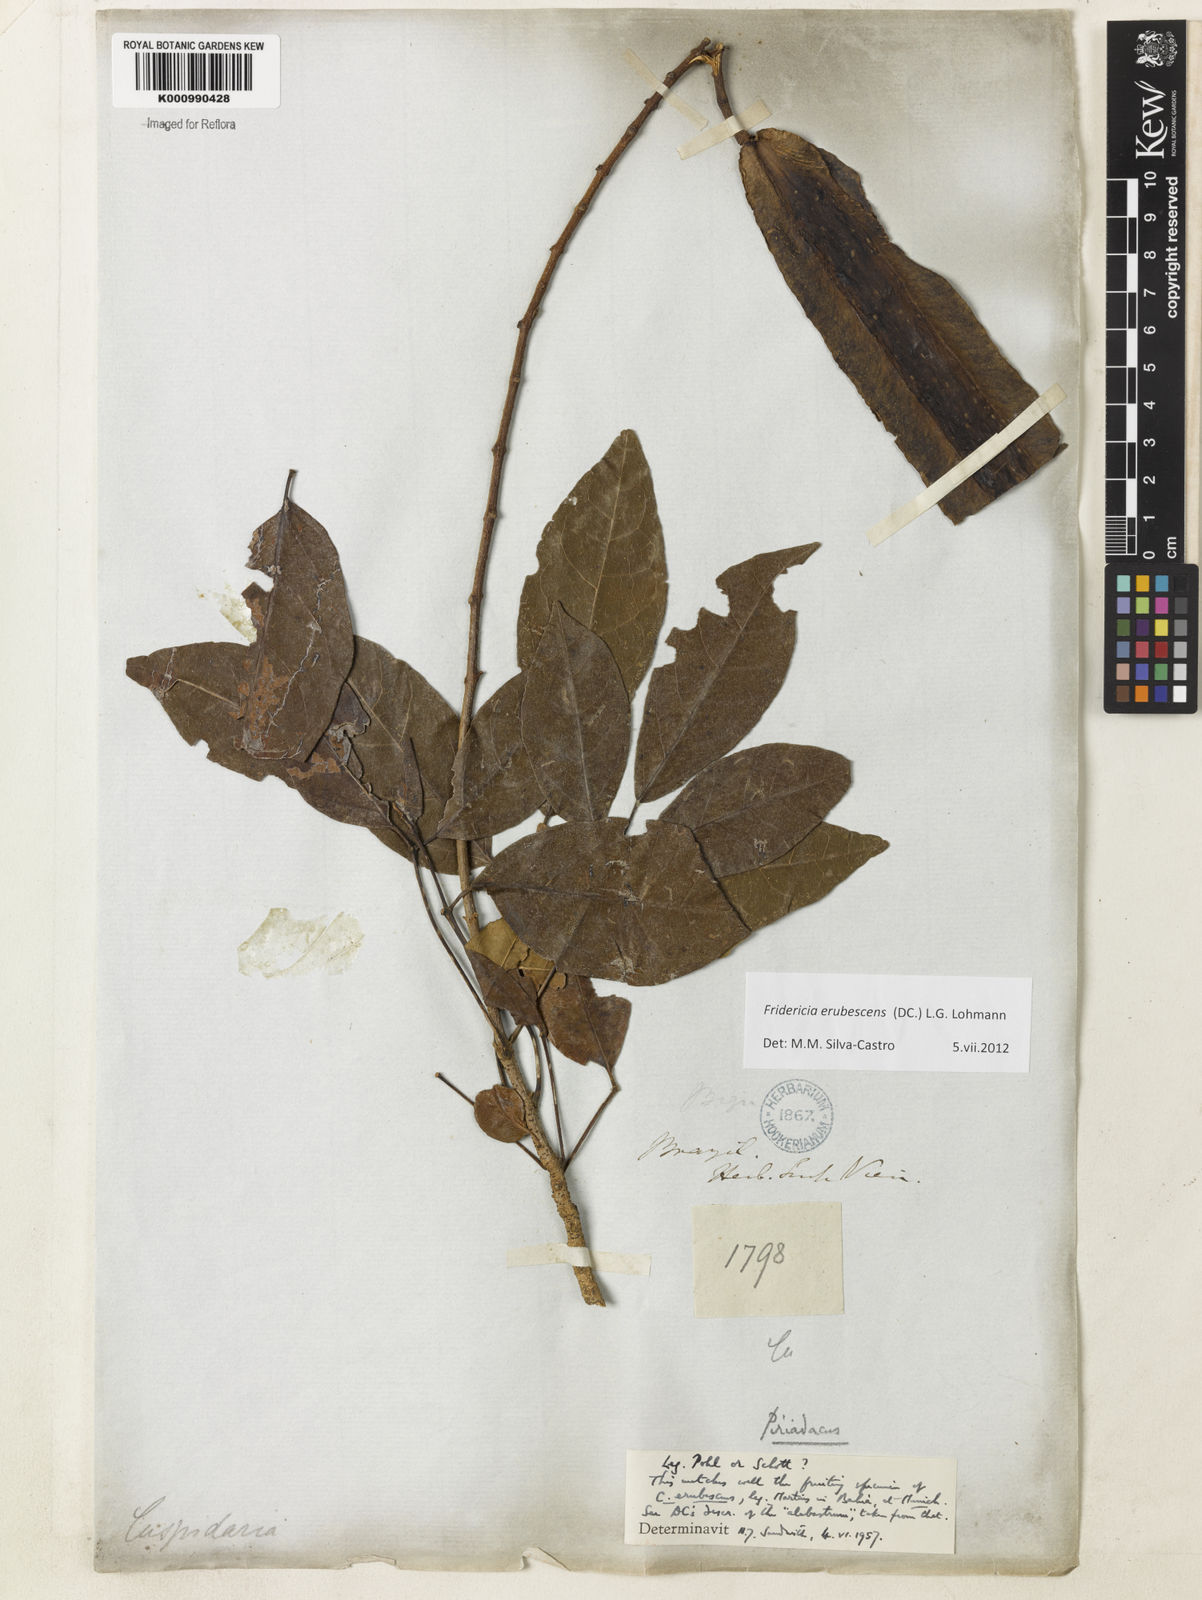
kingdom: Plantae
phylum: Tracheophyta
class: Magnoliopsida
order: Lamiales
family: Bignoniaceae
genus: Fridericia
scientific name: Fridericia erubescens
